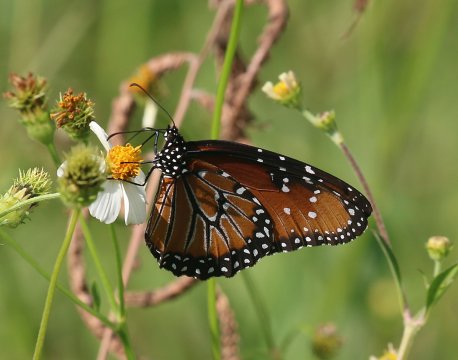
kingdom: Animalia
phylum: Arthropoda
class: Insecta
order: Lepidoptera
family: Nymphalidae
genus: Danaus
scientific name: Danaus gilippus
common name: Queen
